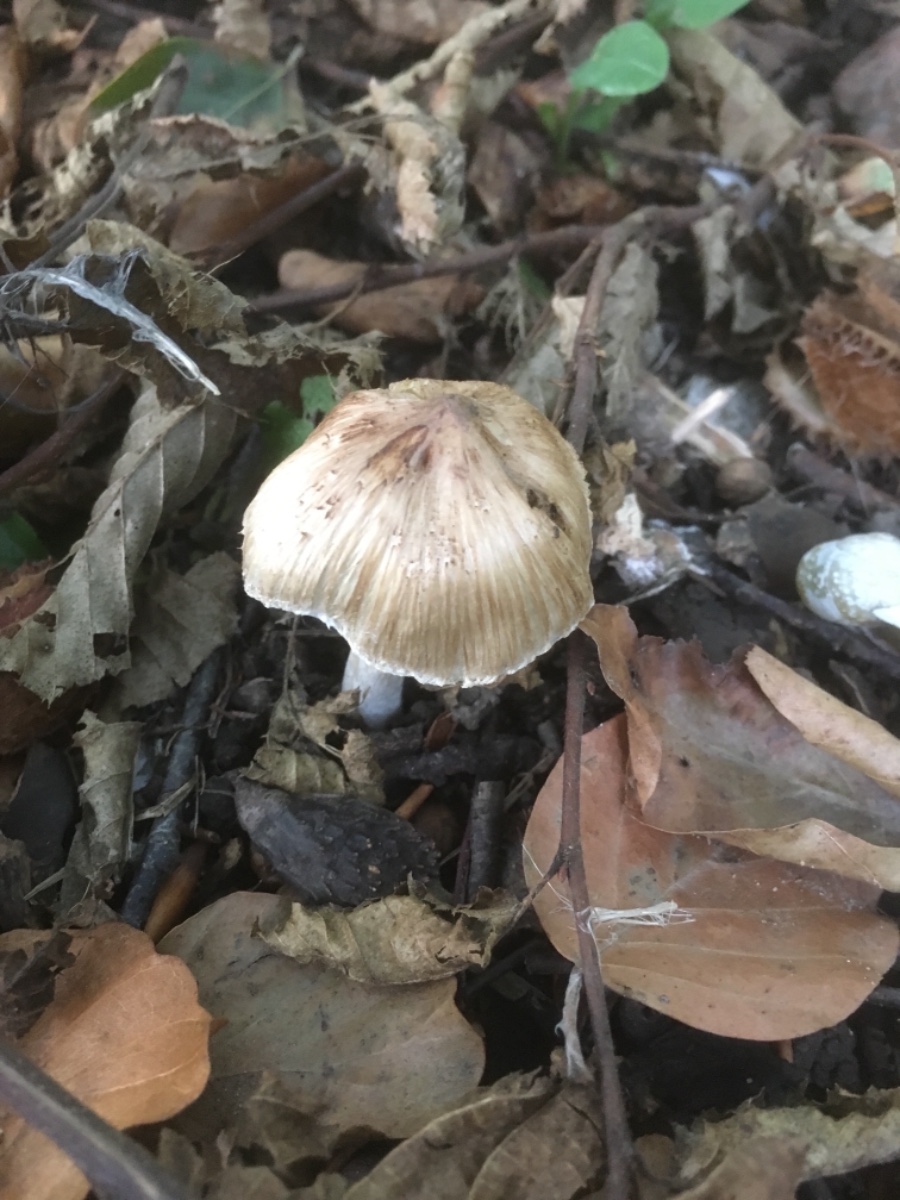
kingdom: Fungi
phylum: Basidiomycota
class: Agaricomycetes
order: Agaricales
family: Inocybaceae
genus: Inocybe
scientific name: Inocybe
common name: trævlhat
